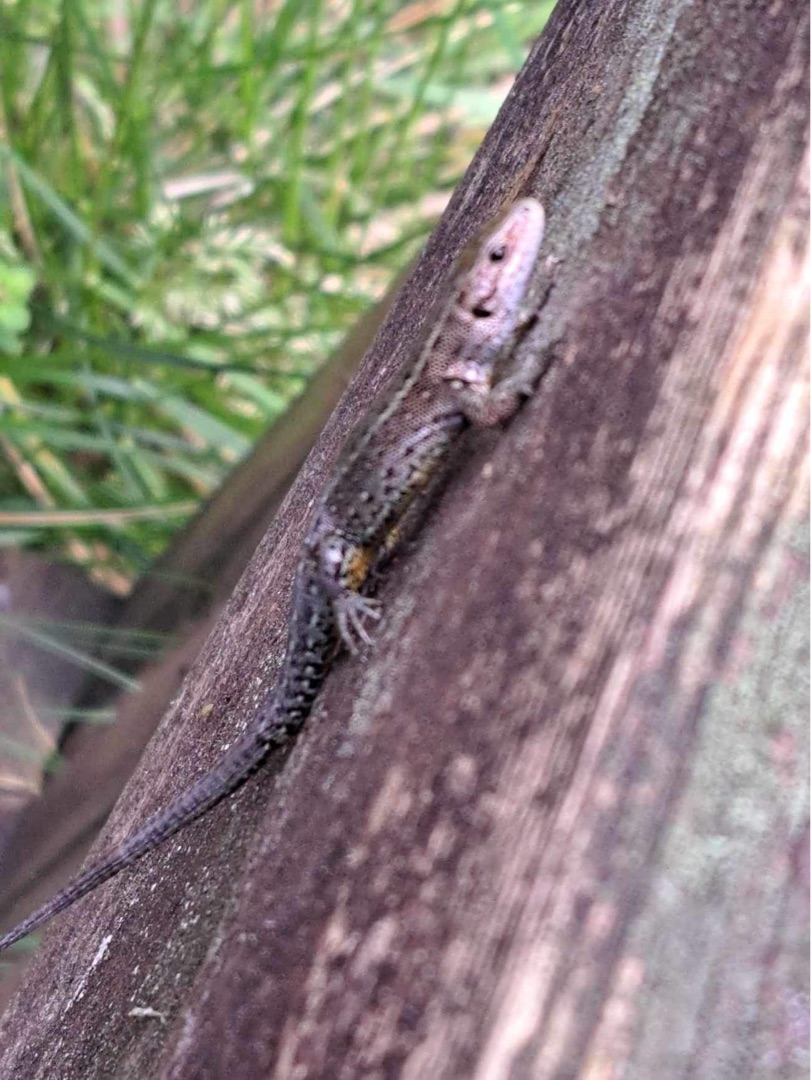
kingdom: Animalia
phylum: Chordata
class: Squamata
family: Lacertidae
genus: Zootoca
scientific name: Zootoca vivipara
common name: Skovfirben
